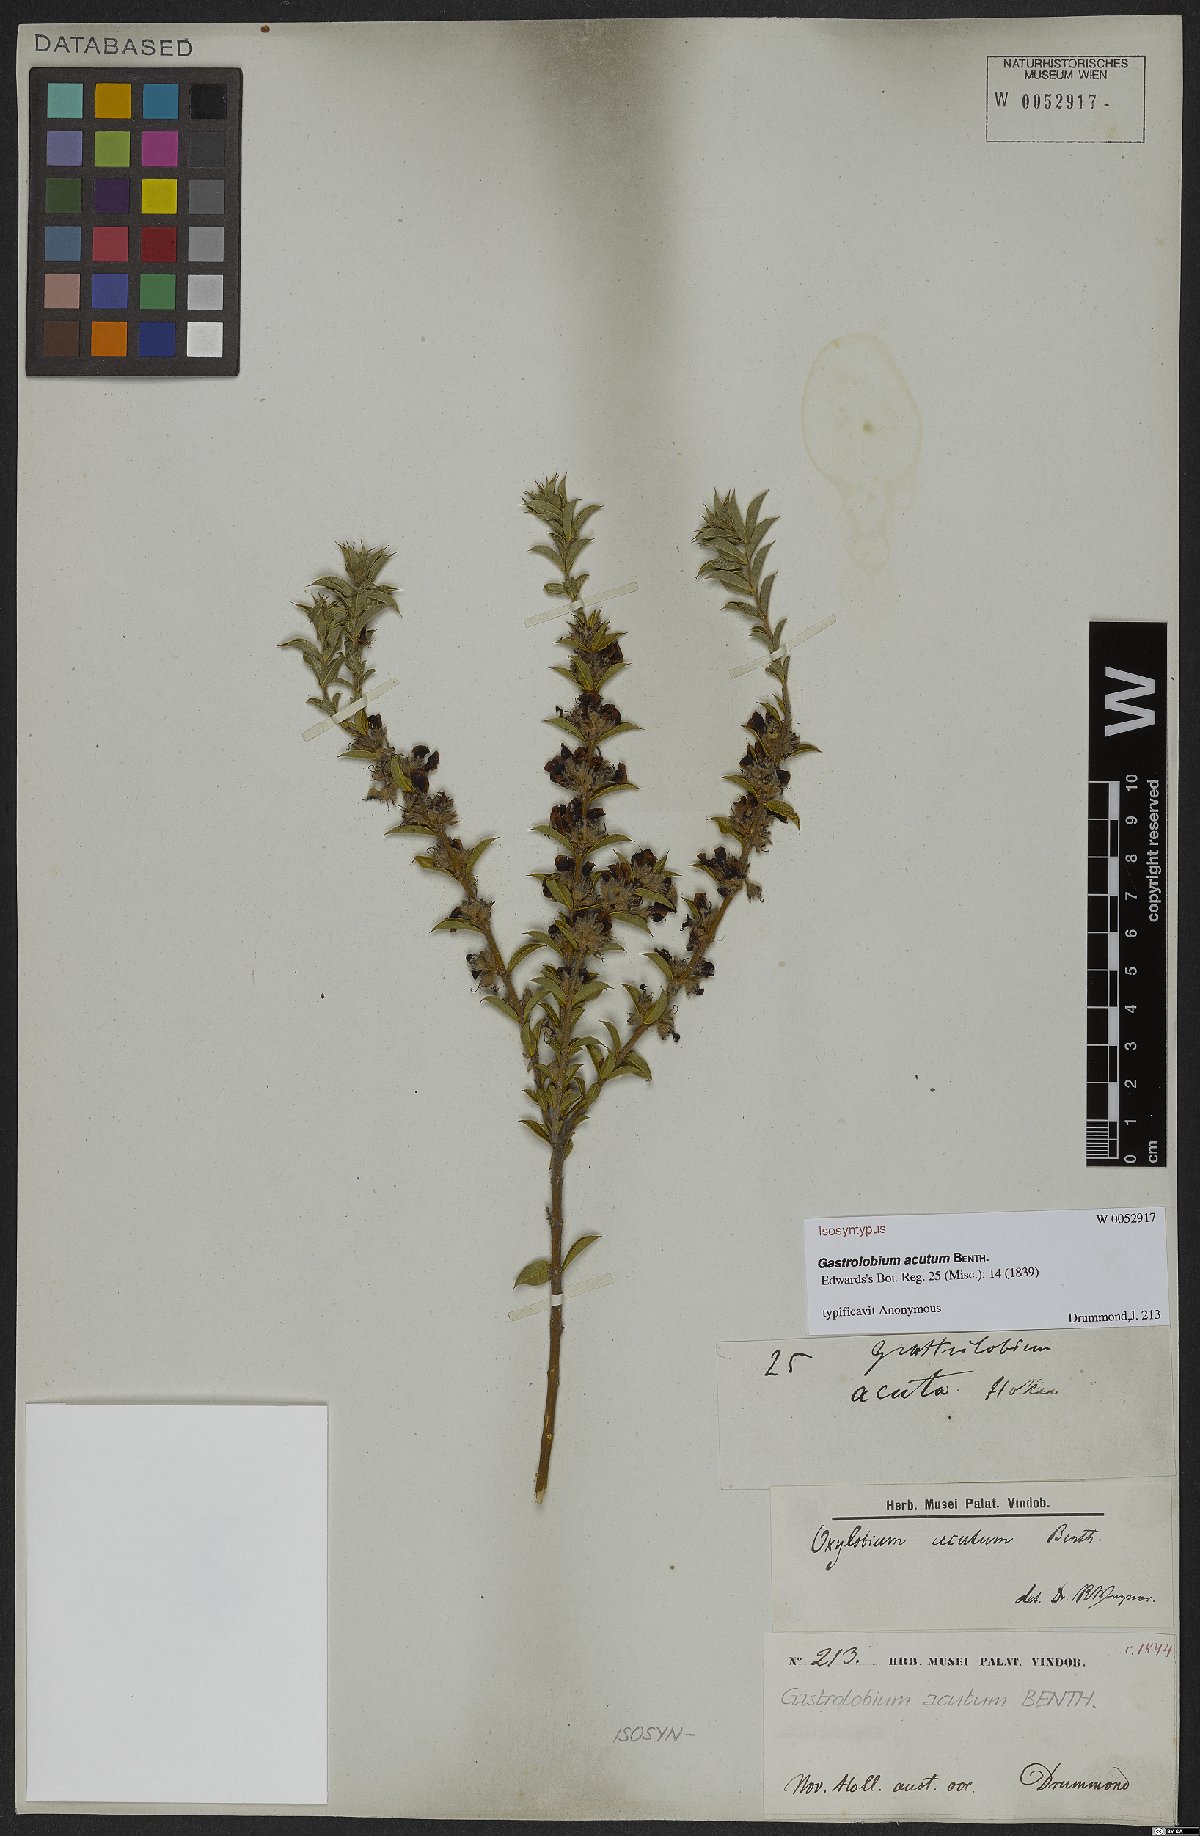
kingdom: Plantae
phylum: Tracheophyta
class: Magnoliopsida
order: Fabales
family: Fabaceae
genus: Gastrolobium
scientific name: Gastrolobium acutum
